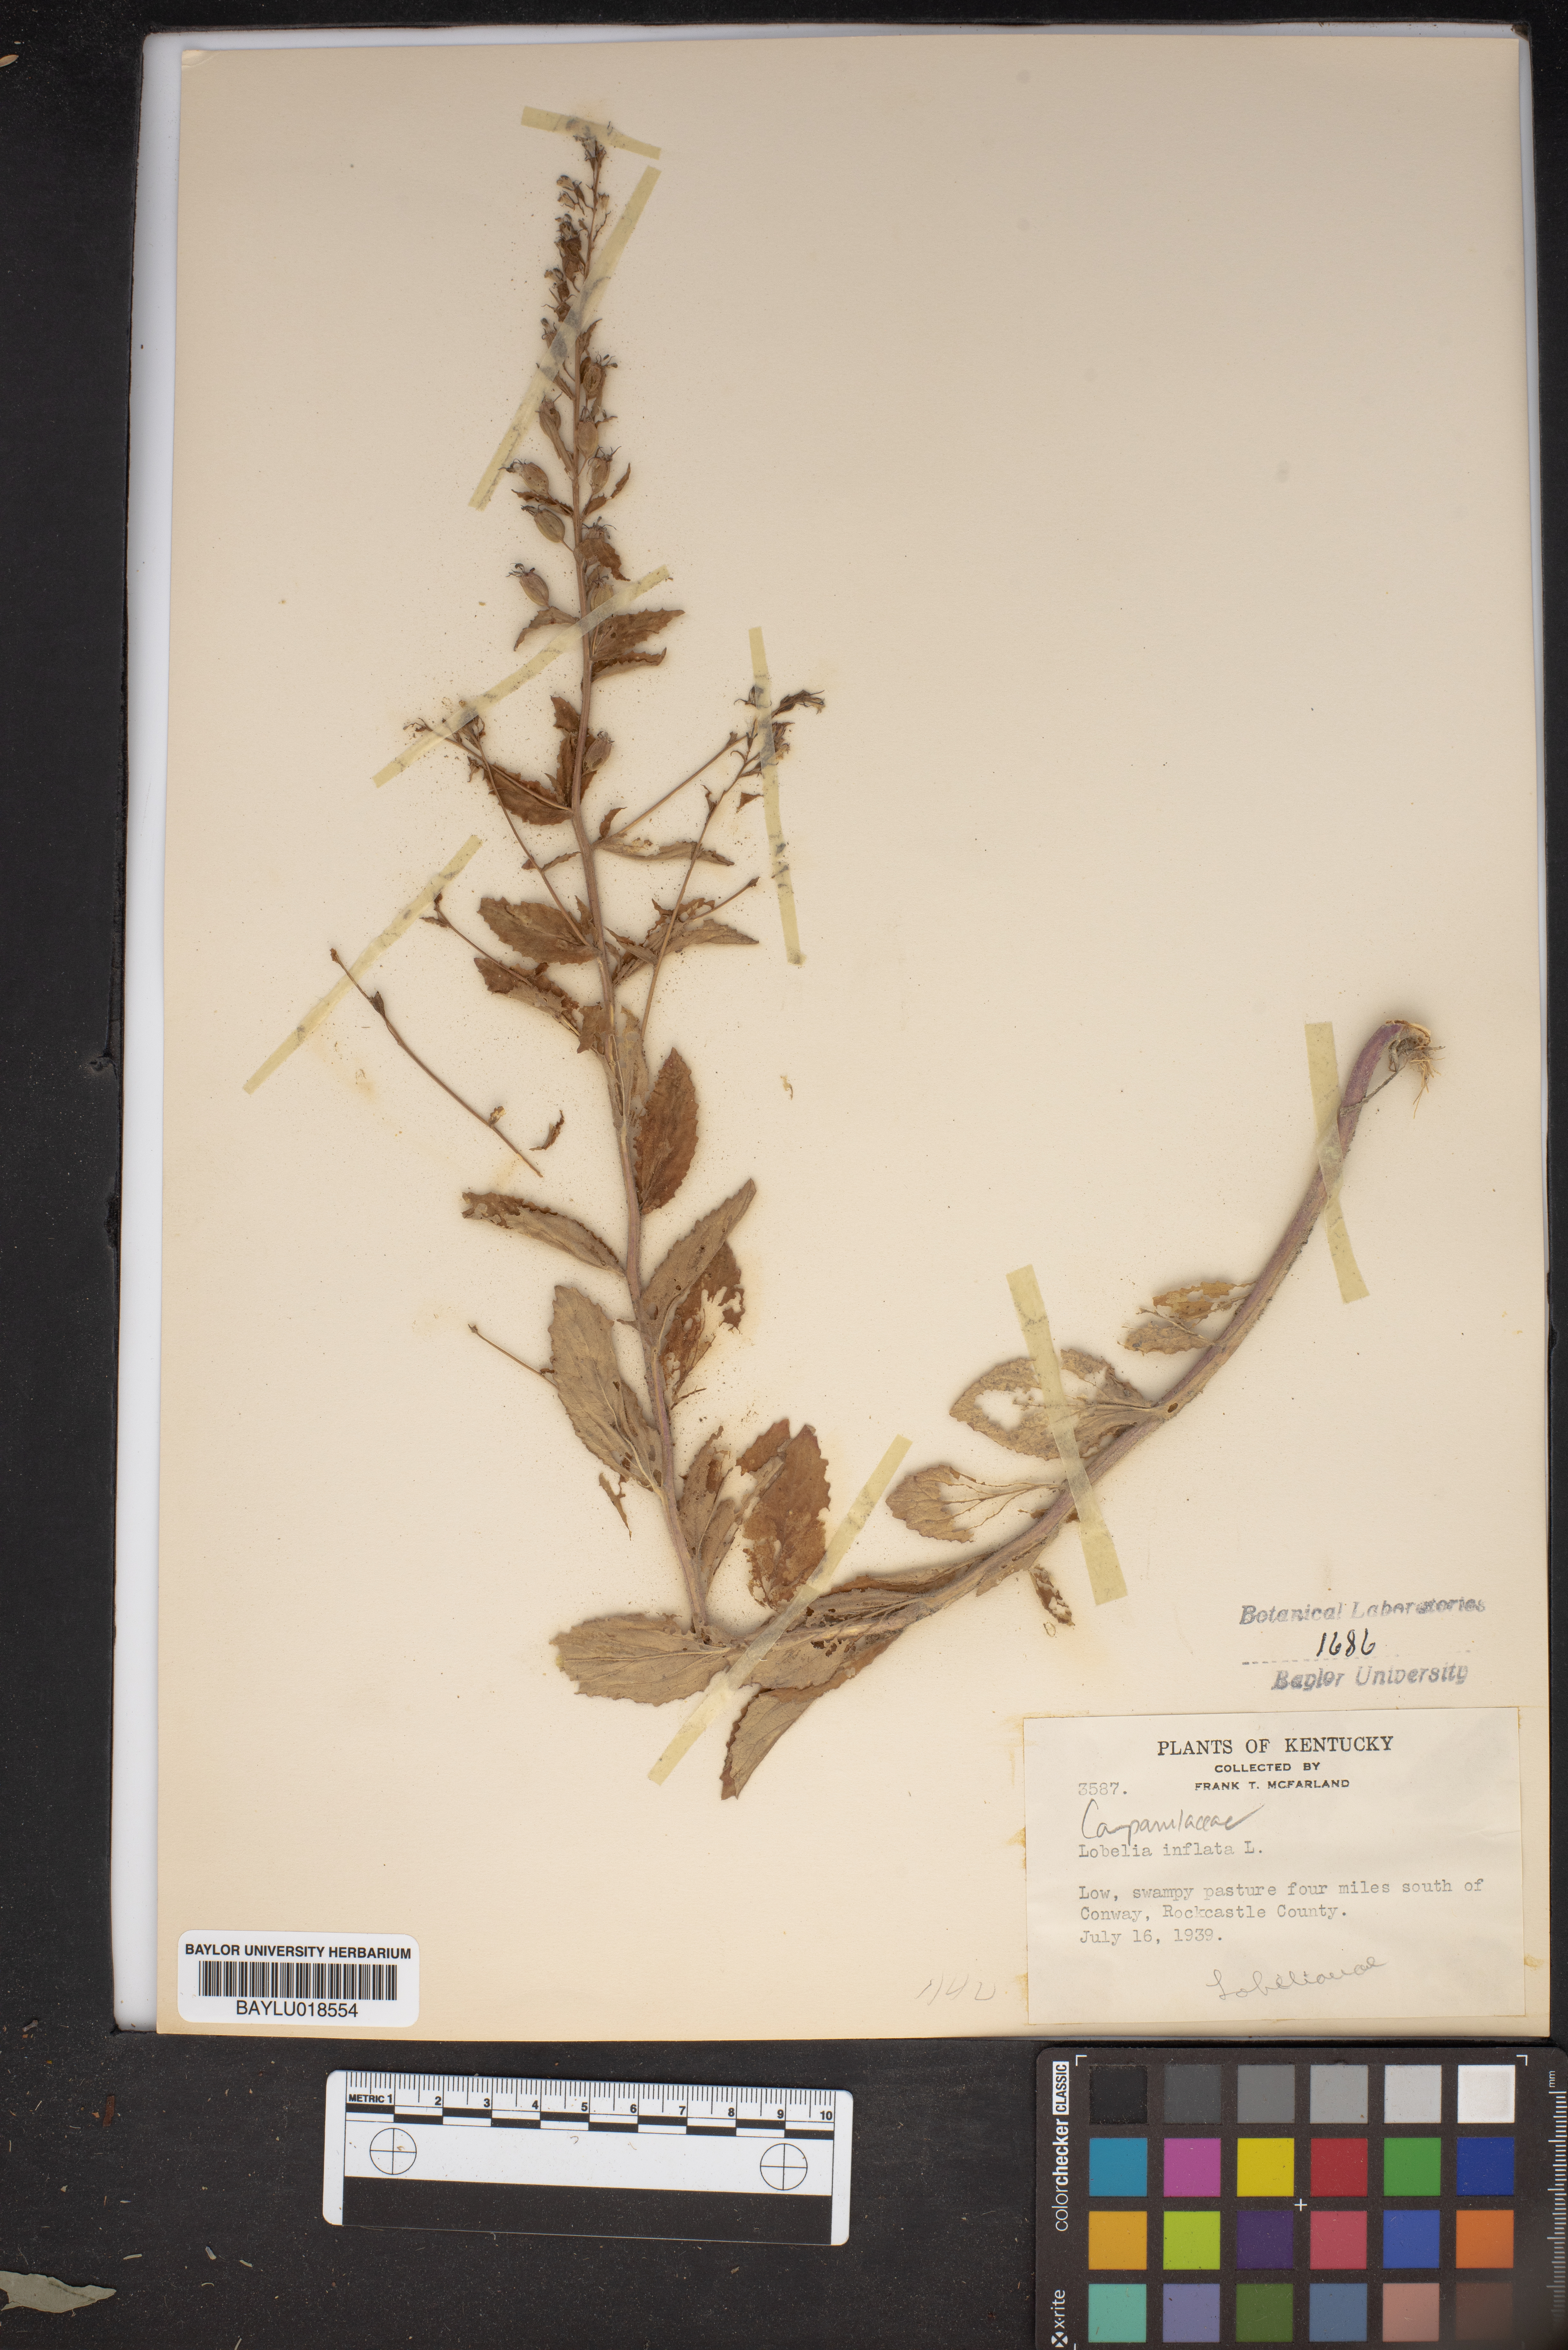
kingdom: Plantae
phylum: Tracheophyta
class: Magnoliopsida
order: Asterales
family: Campanulaceae
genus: Lobelia
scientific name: Lobelia inflata
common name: Indian tobacco
